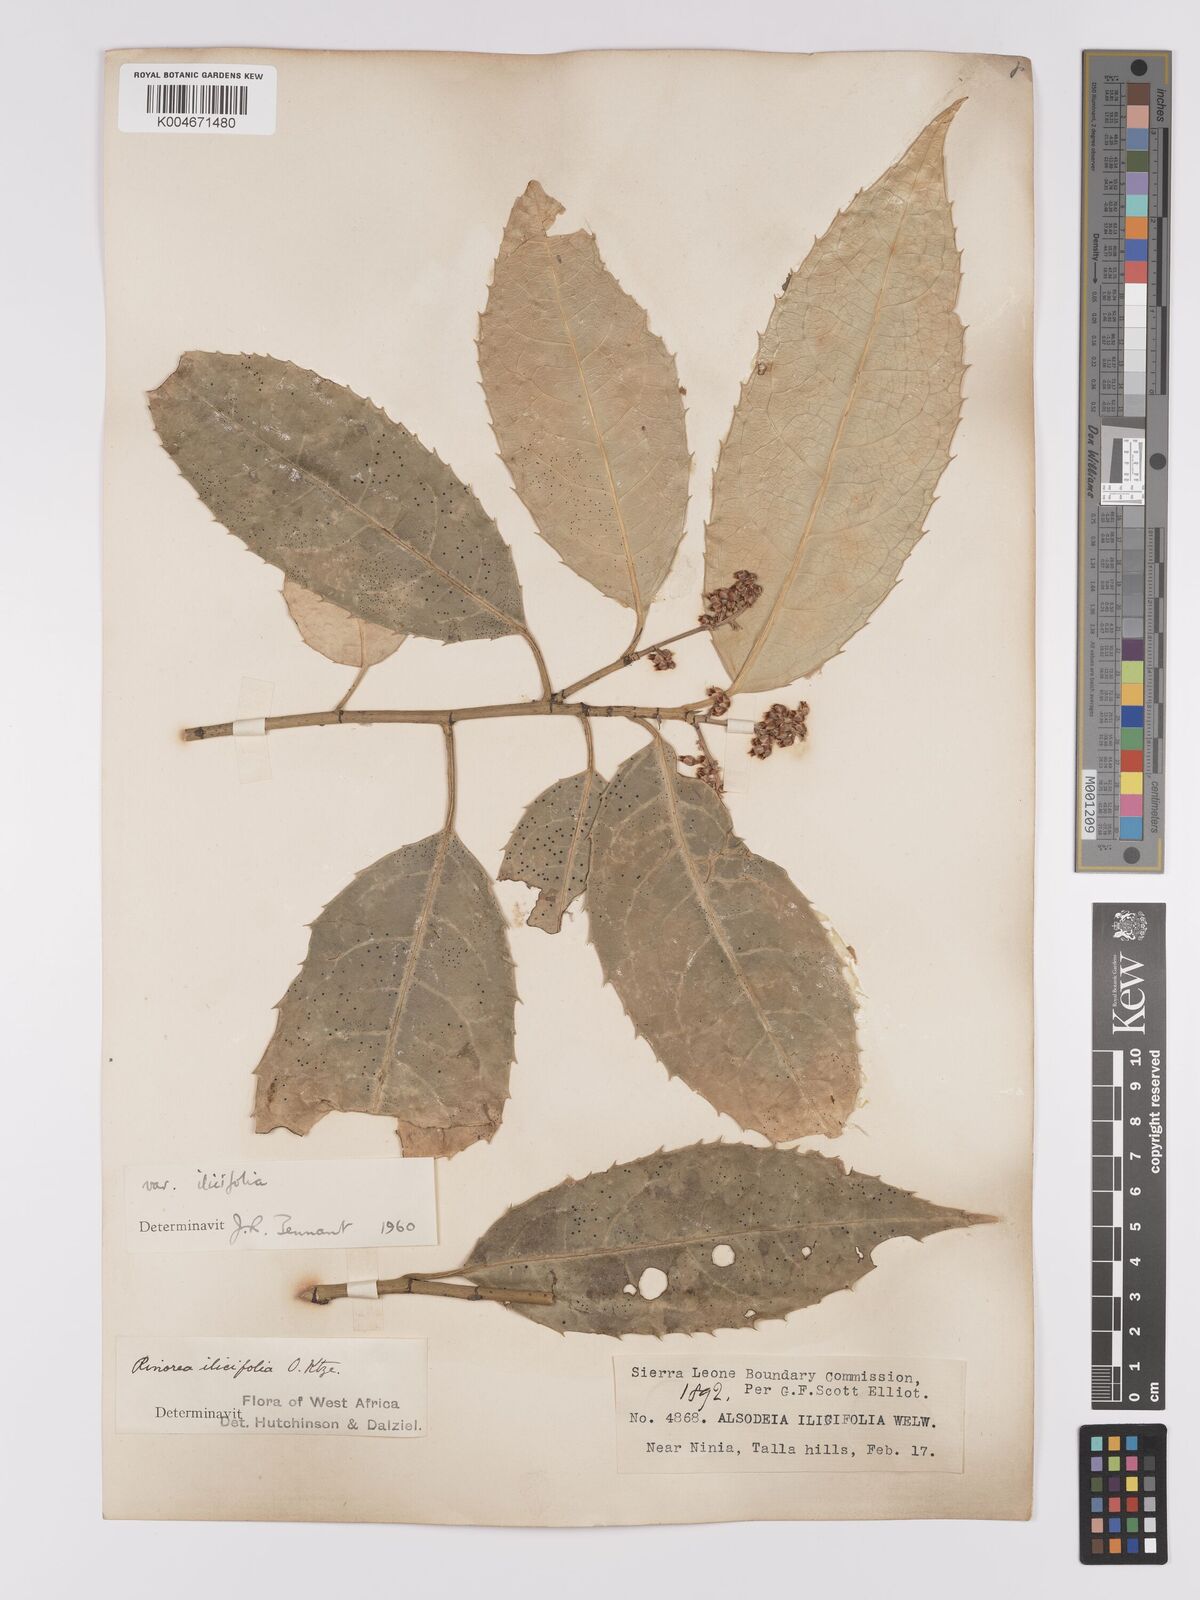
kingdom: Plantae
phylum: Tracheophyta
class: Magnoliopsida
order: Malpighiales
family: Violaceae
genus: Rinorea
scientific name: Rinorea ilicifolia
